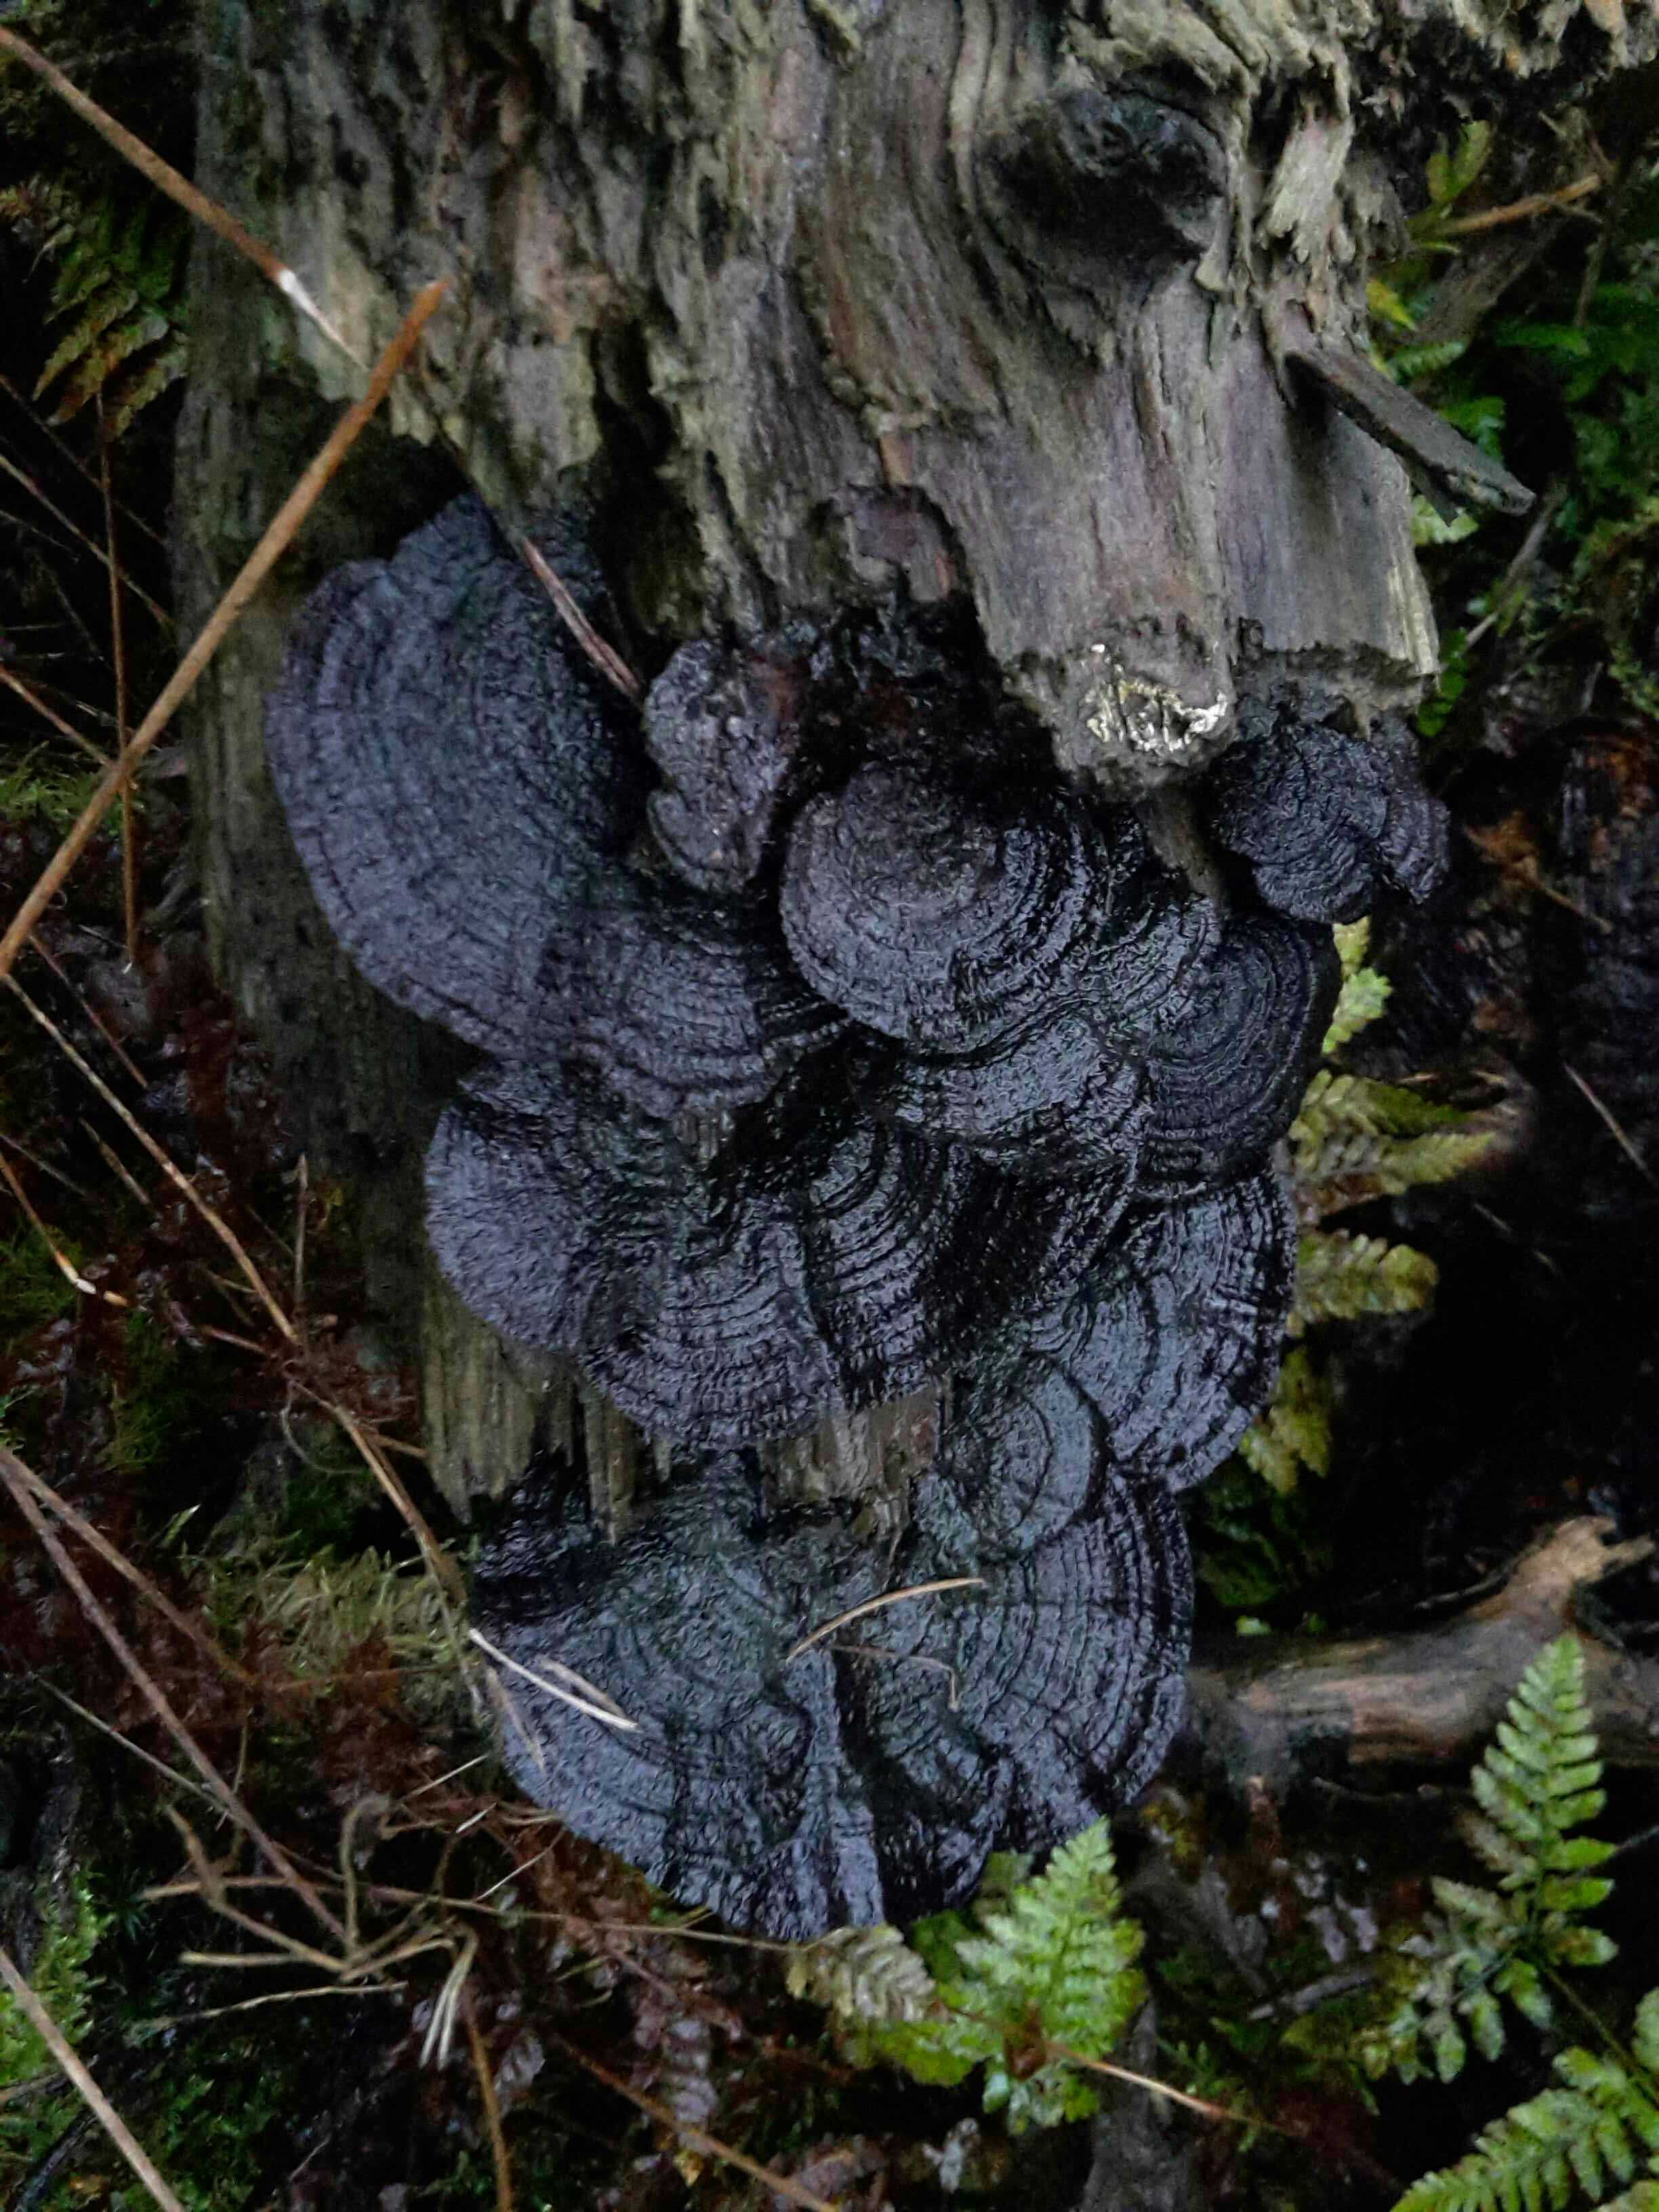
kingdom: Fungi
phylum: Basidiomycota
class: Agaricomycetes
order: Gloeophyllales
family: Gloeophyllaceae
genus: Gloeophyllum
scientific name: Gloeophyllum sepiarium
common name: fyrre-korkhat
